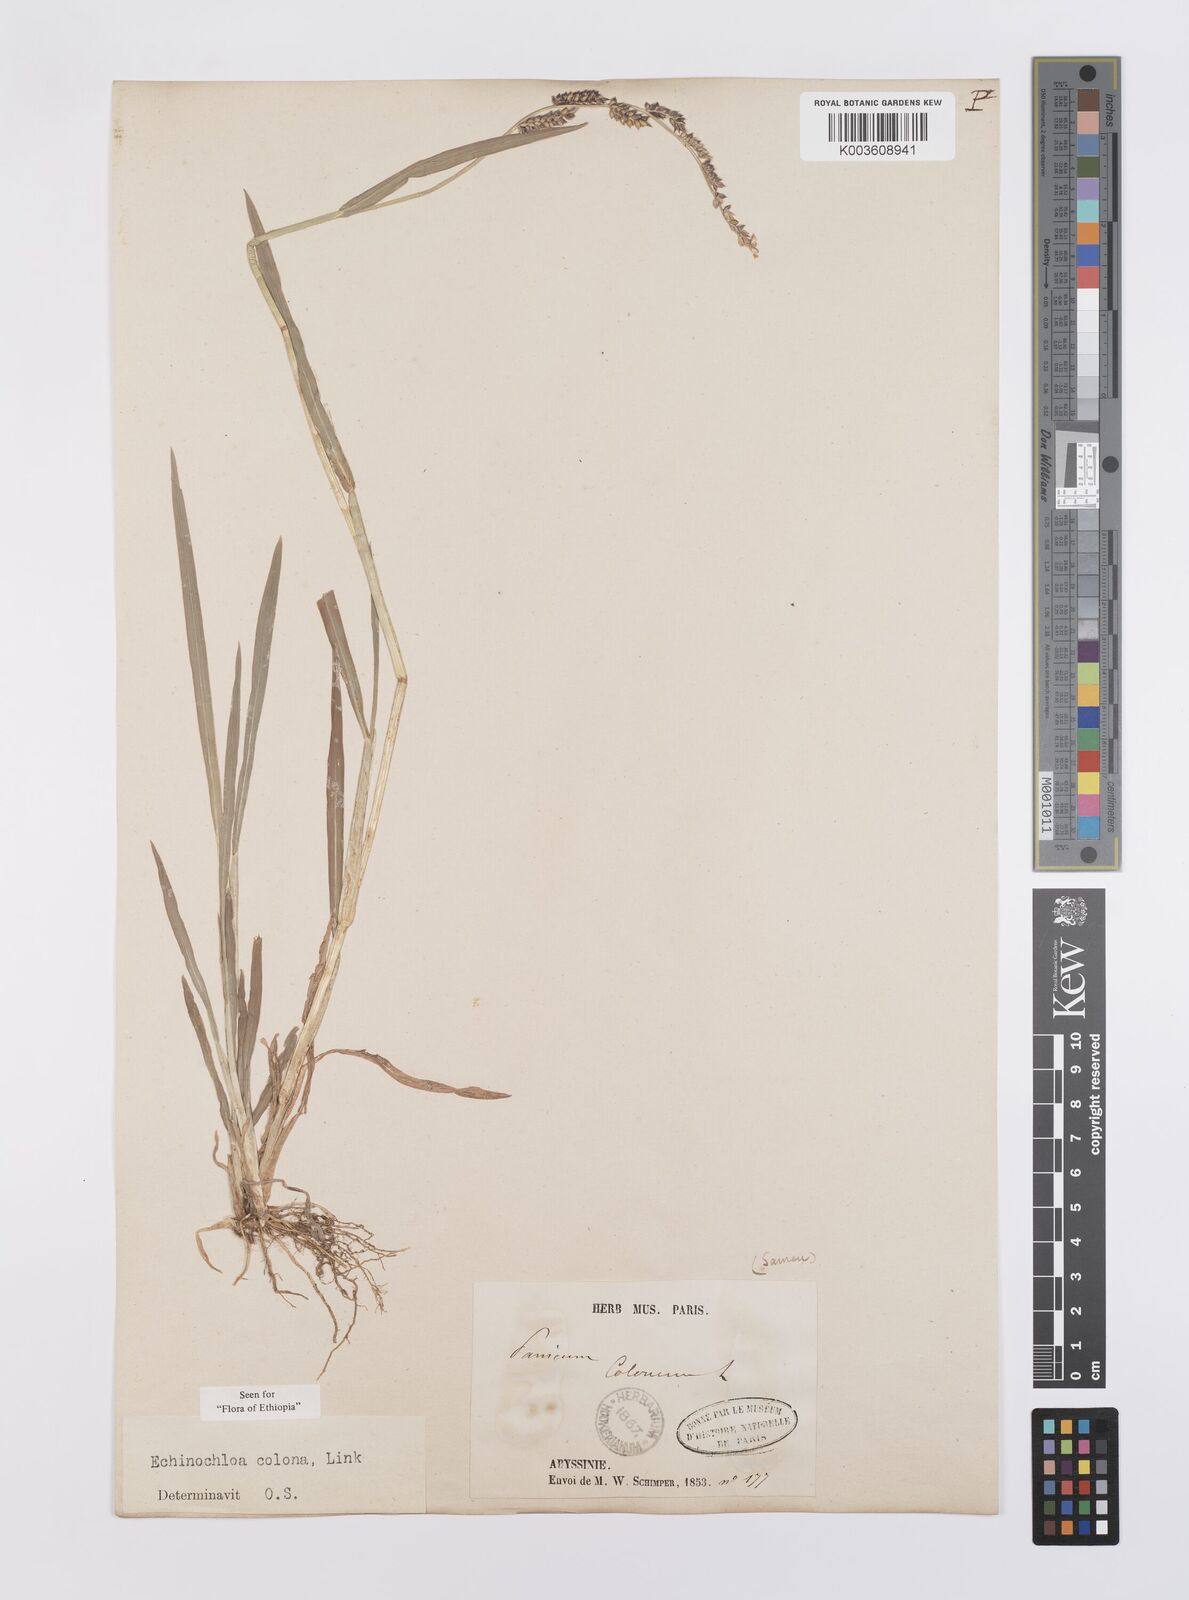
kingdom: Plantae
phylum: Tracheophyta
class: Liliopsida
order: Poales
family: Poaceae
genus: Echinochloa
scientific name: Echinochloa colonum
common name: Jungle rice
